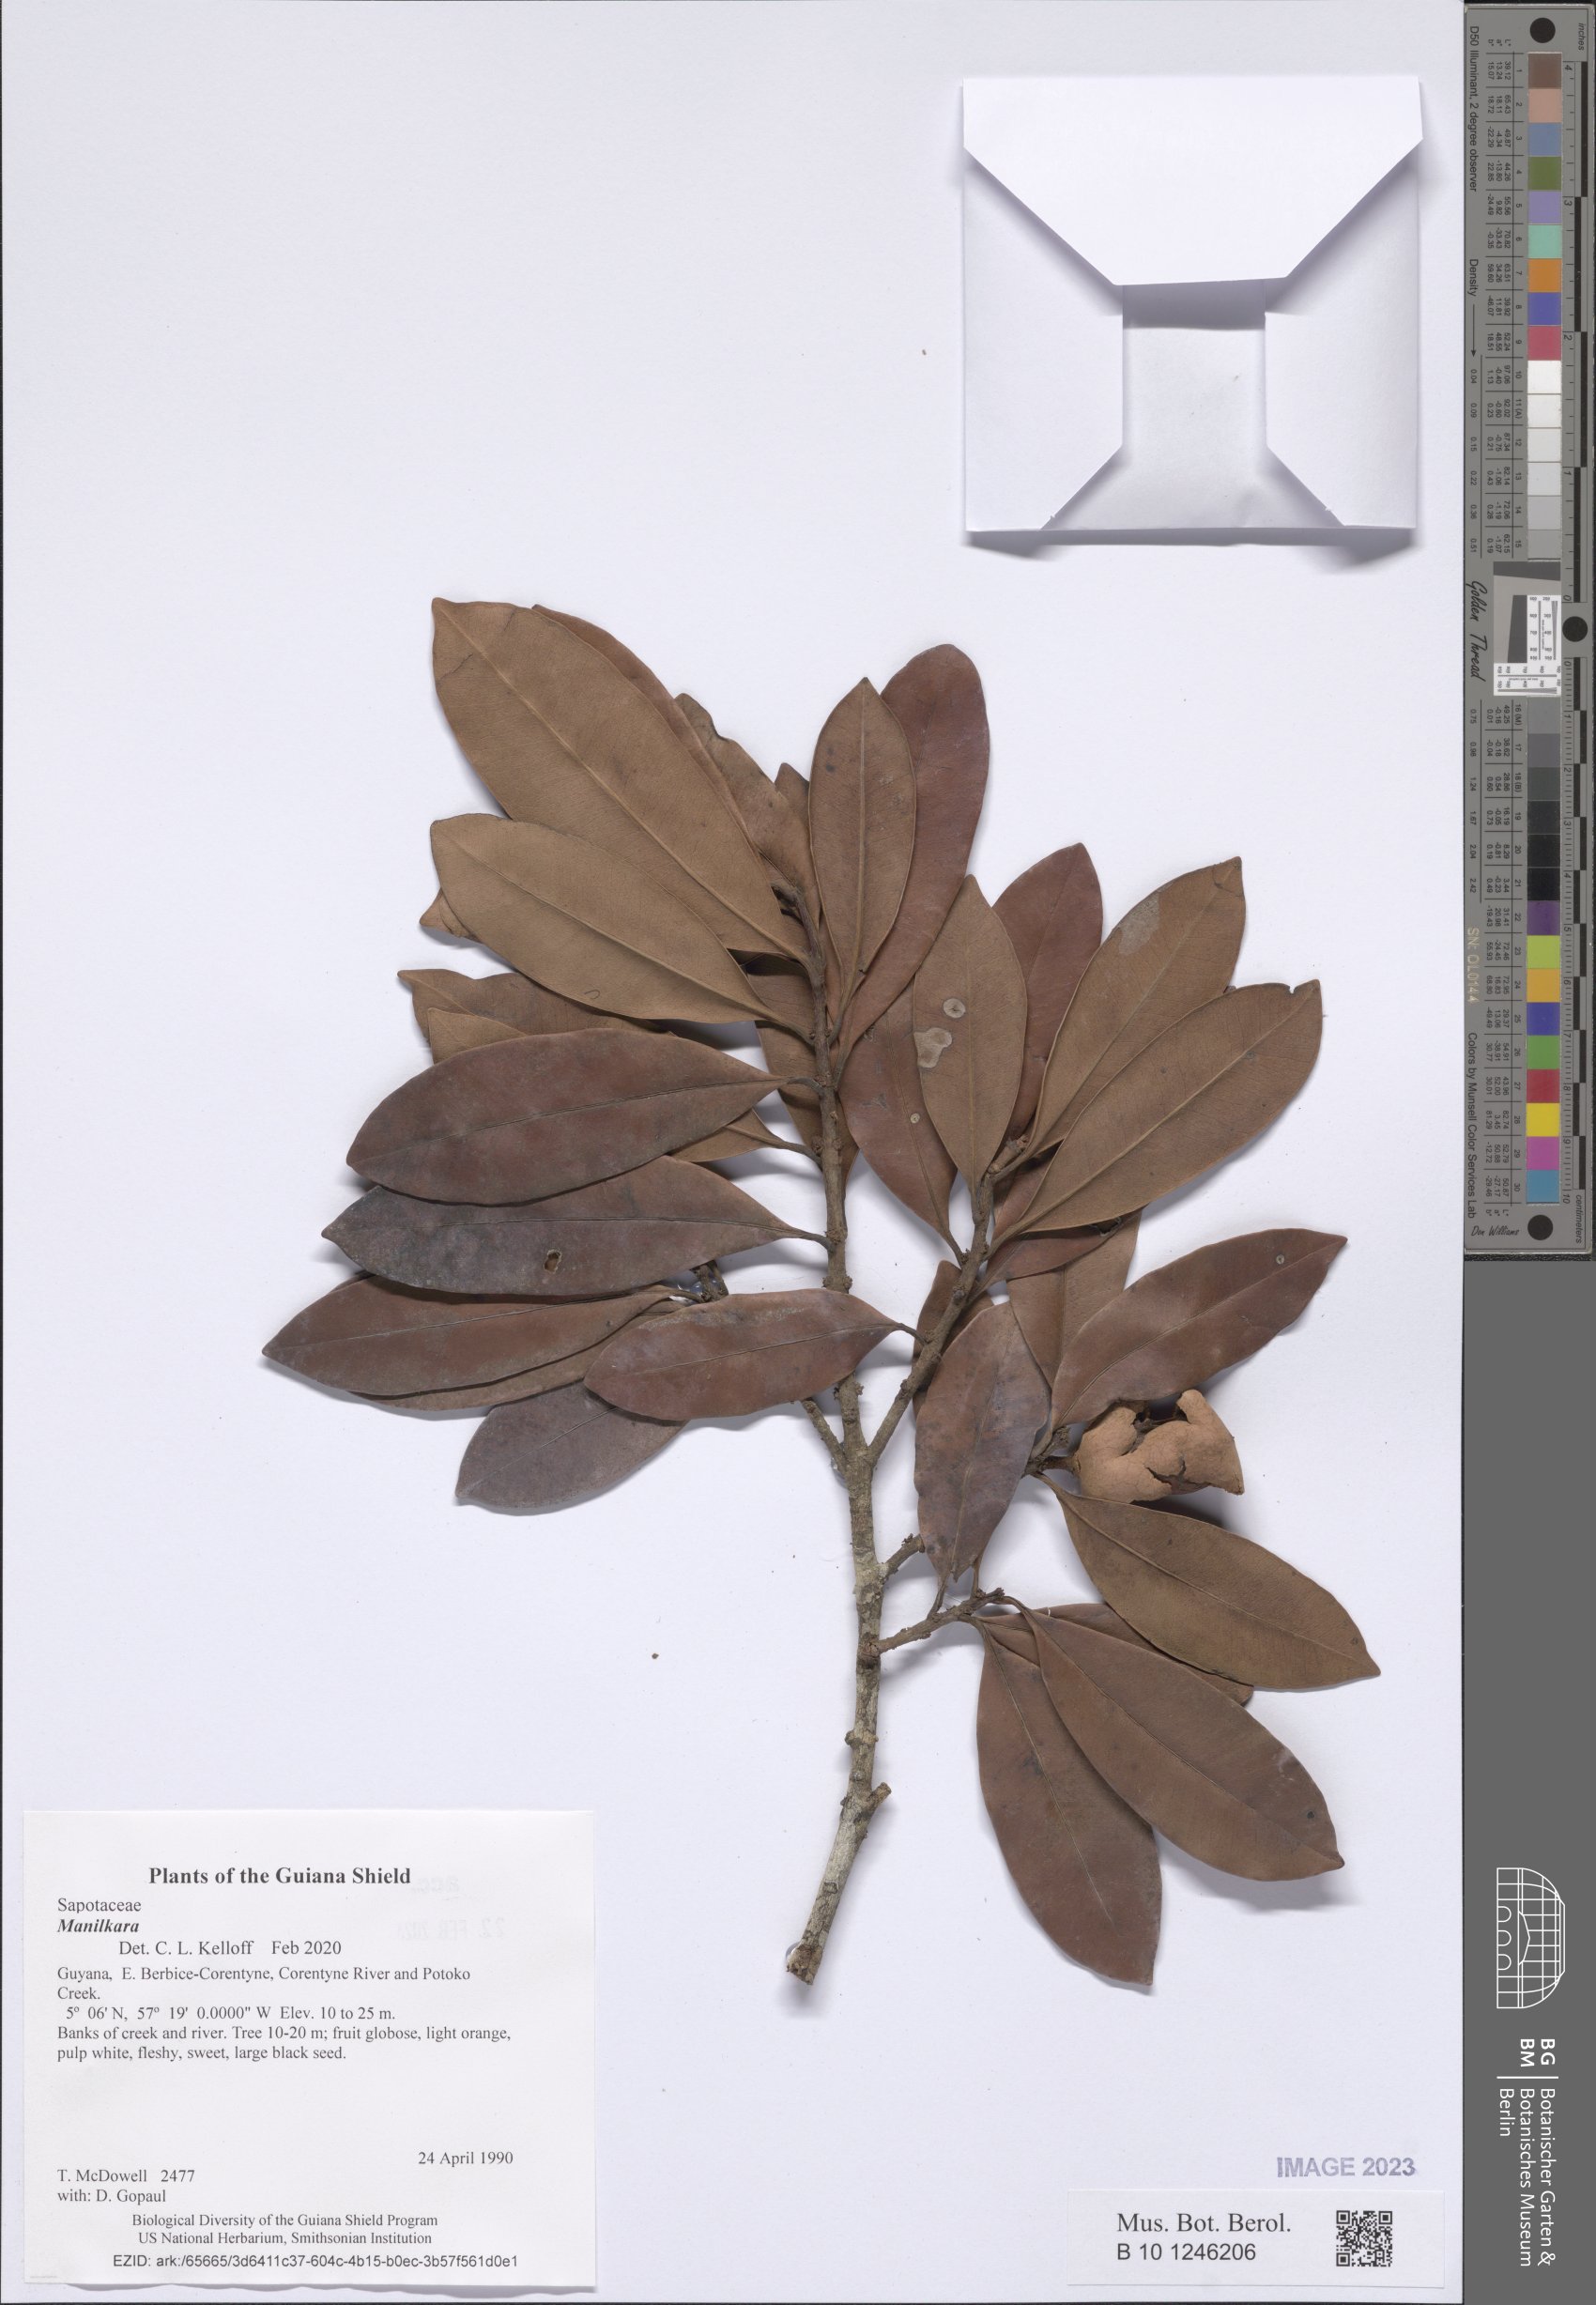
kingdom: Plantae
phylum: Tracheophyta
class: Magnoliopsida
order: Ericales
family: Sapotaceae
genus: Manilkara
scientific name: Manilkara
